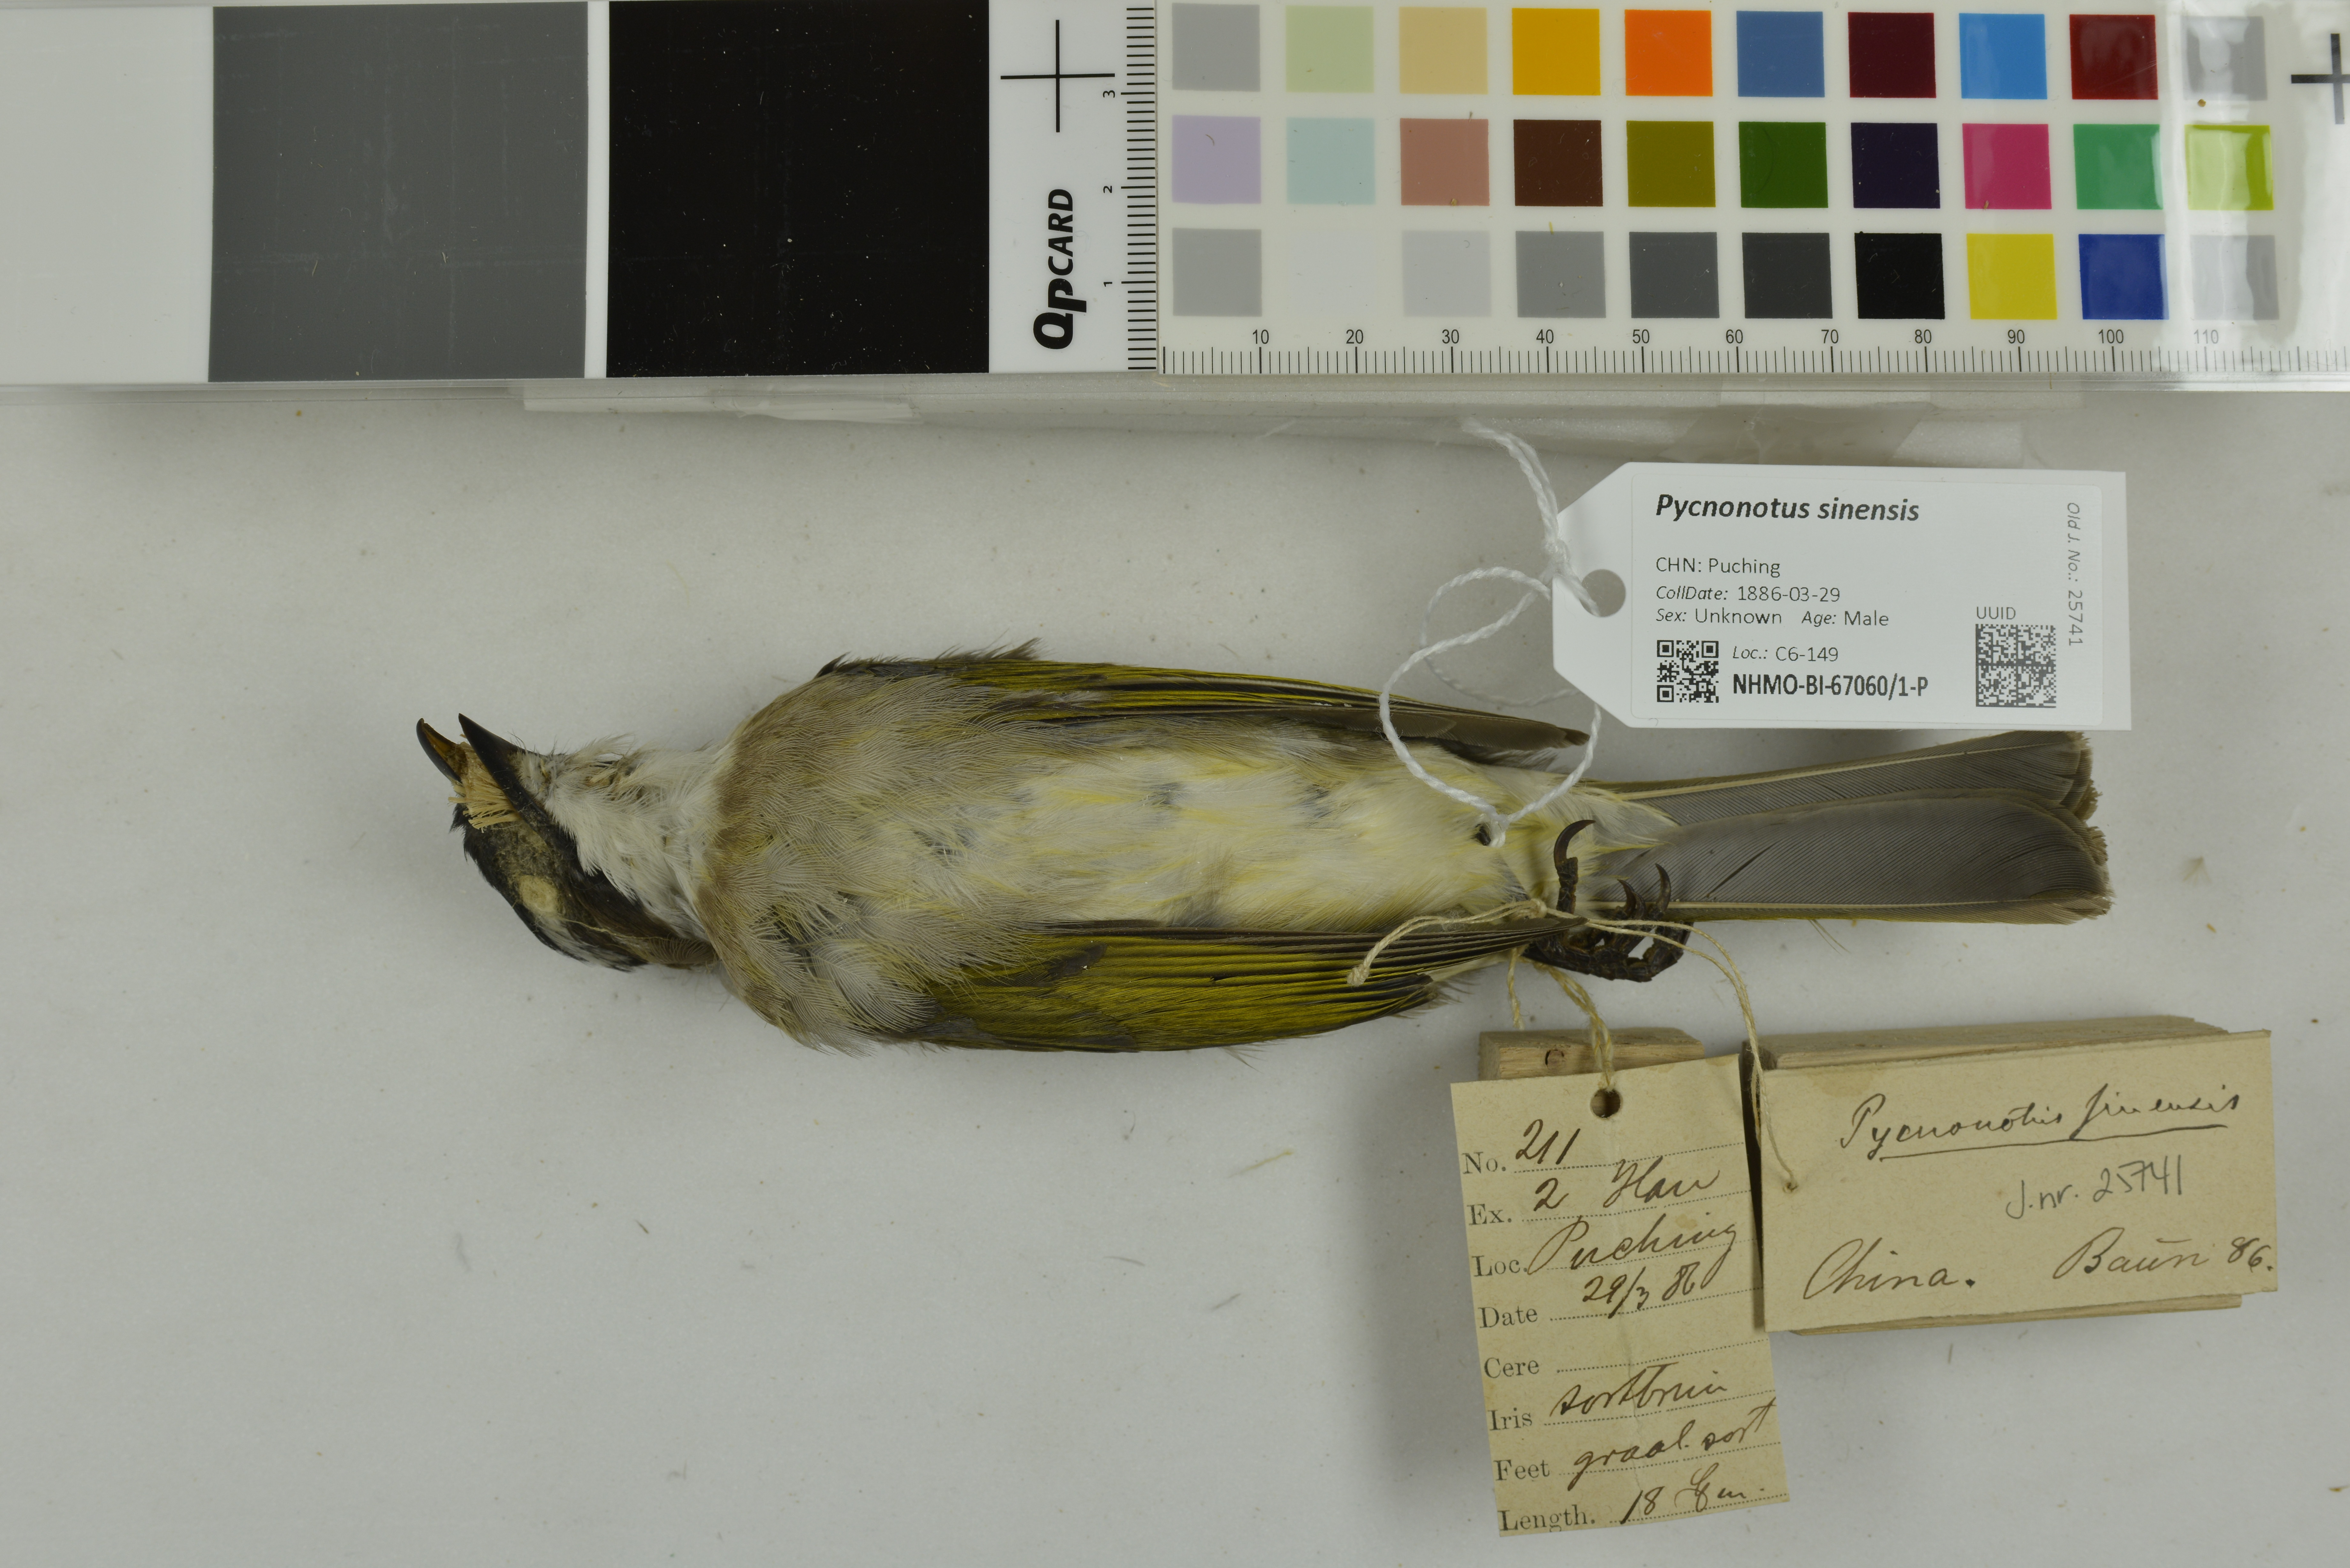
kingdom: Animalia
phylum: Chordata
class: Aves
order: Passeriformes
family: Pycnonotidae
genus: Pycnonotus
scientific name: Pycnonotus sinensis
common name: Light-vented bulbul
